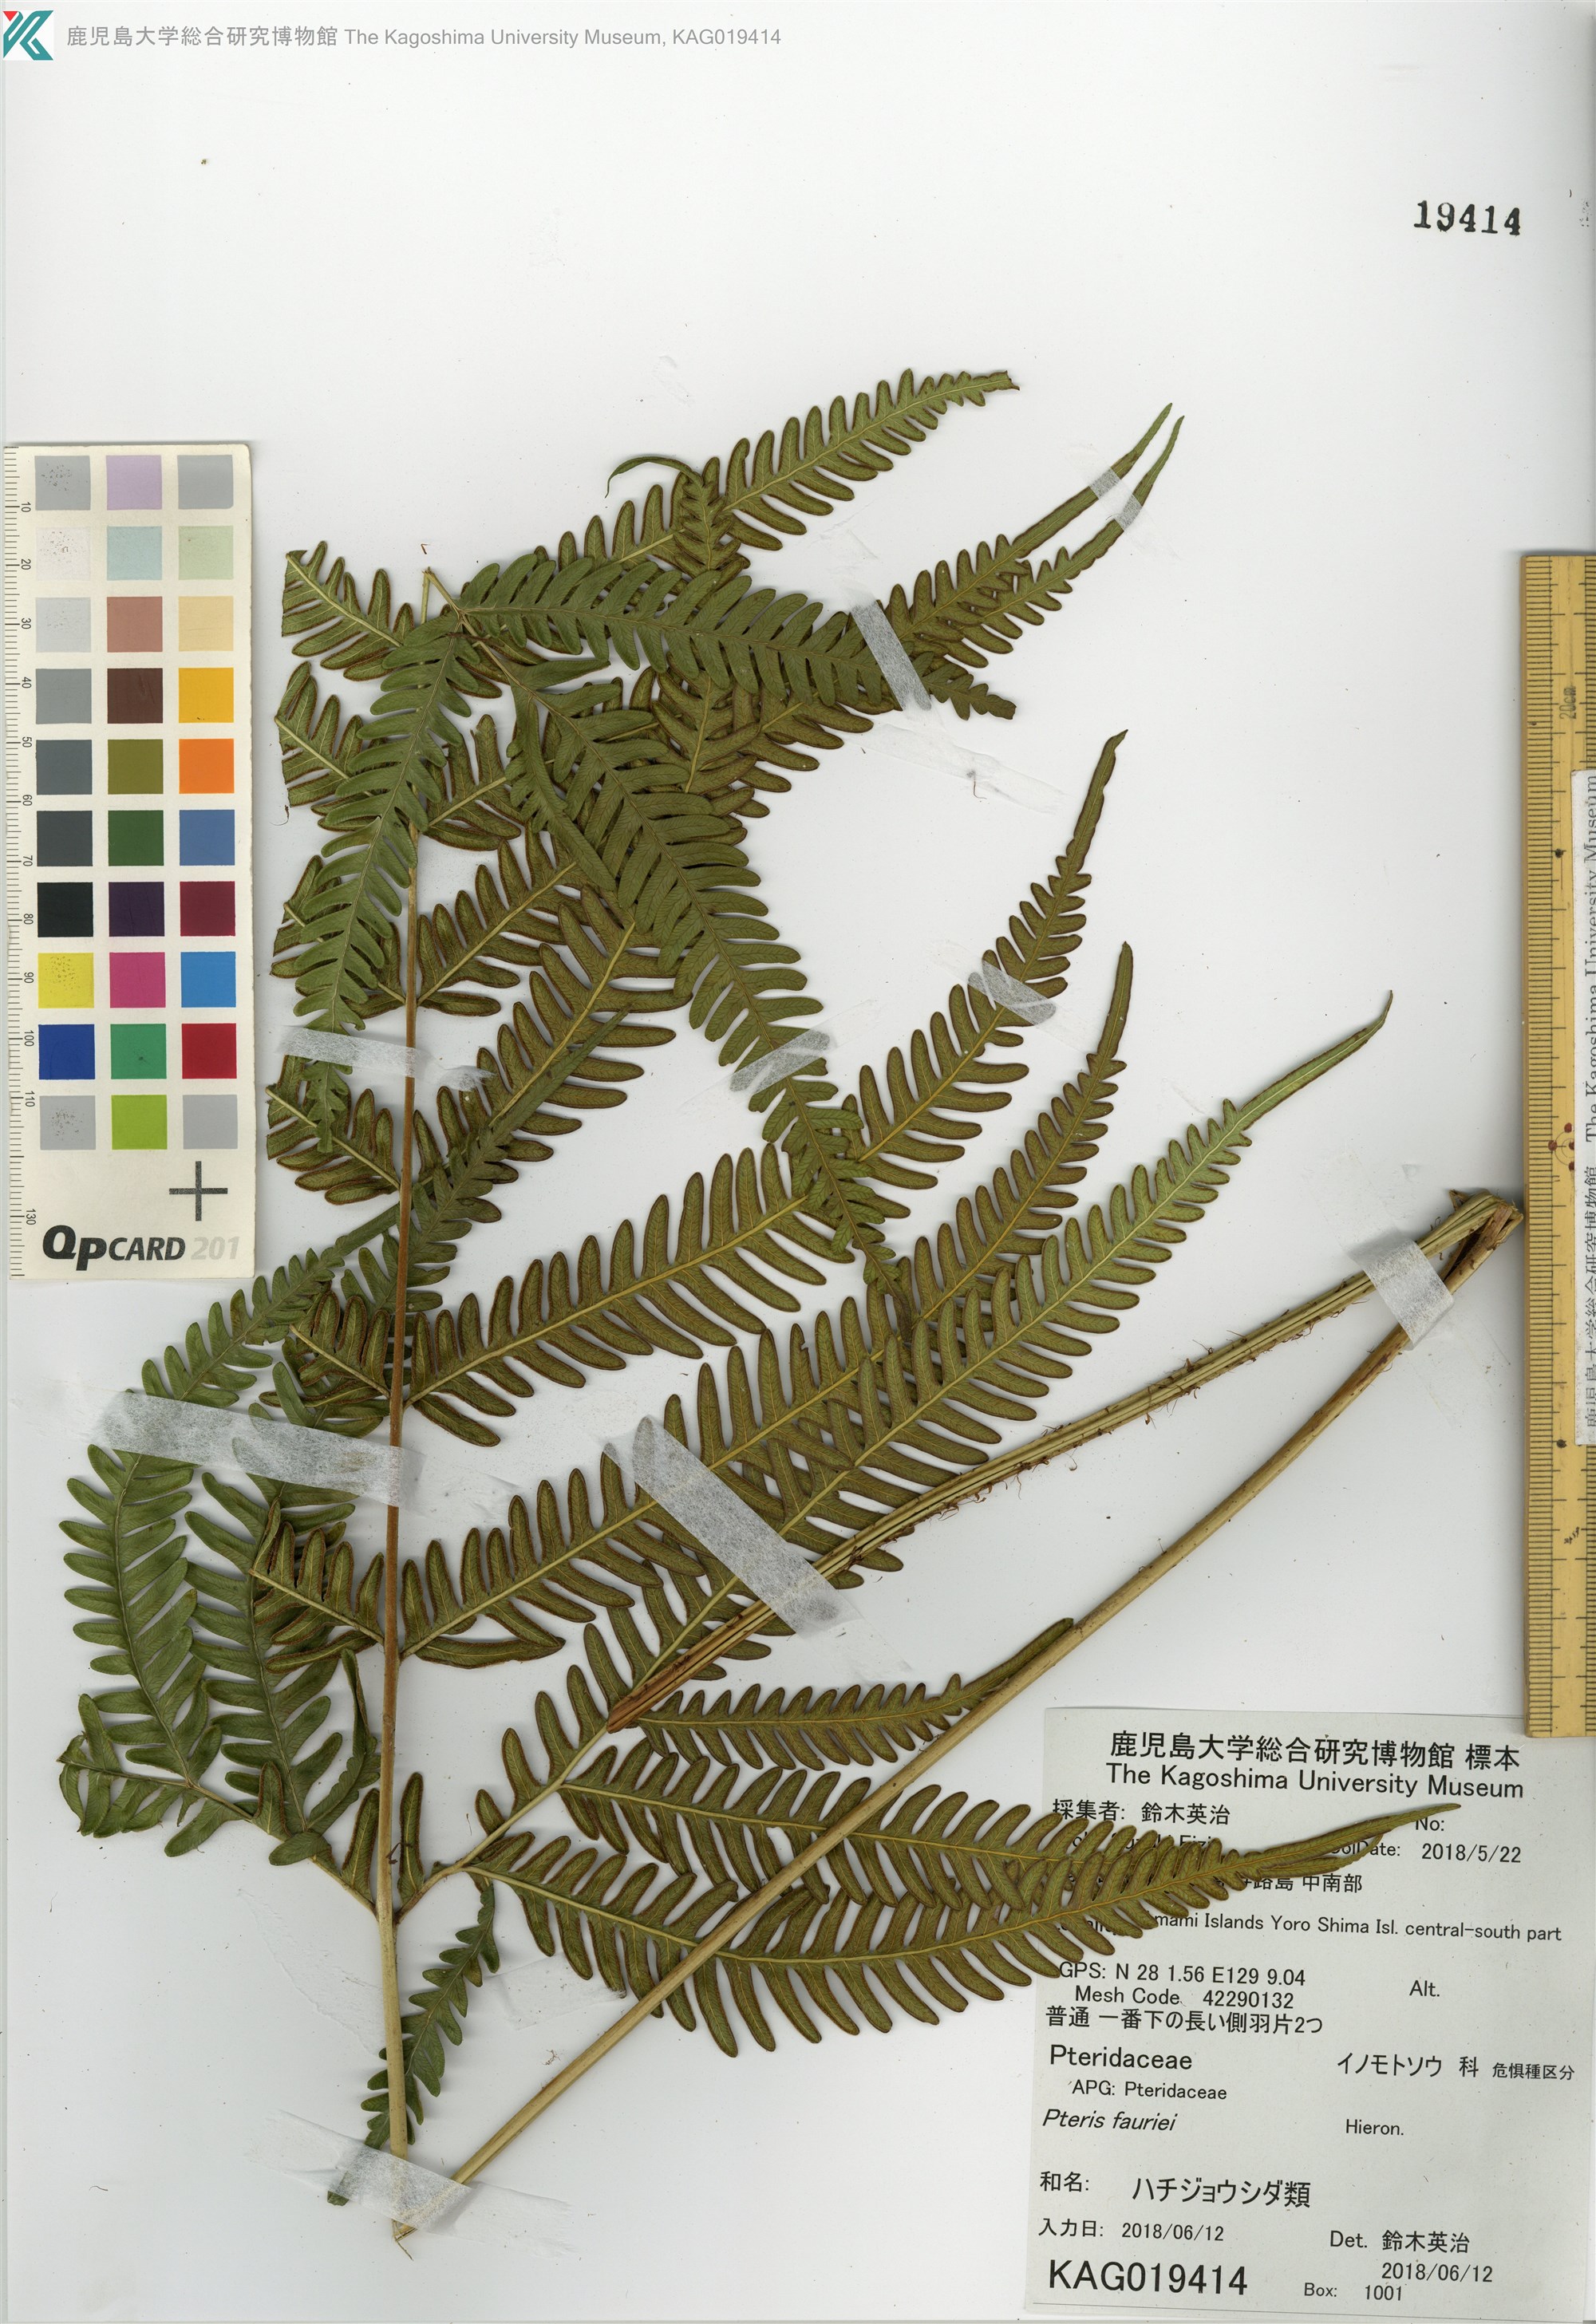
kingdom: Plantae
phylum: Tracheophyta
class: Polypodiopsida
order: Polypodiales
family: Pteridaceae
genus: Pteris
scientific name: Pteris oshimensis
